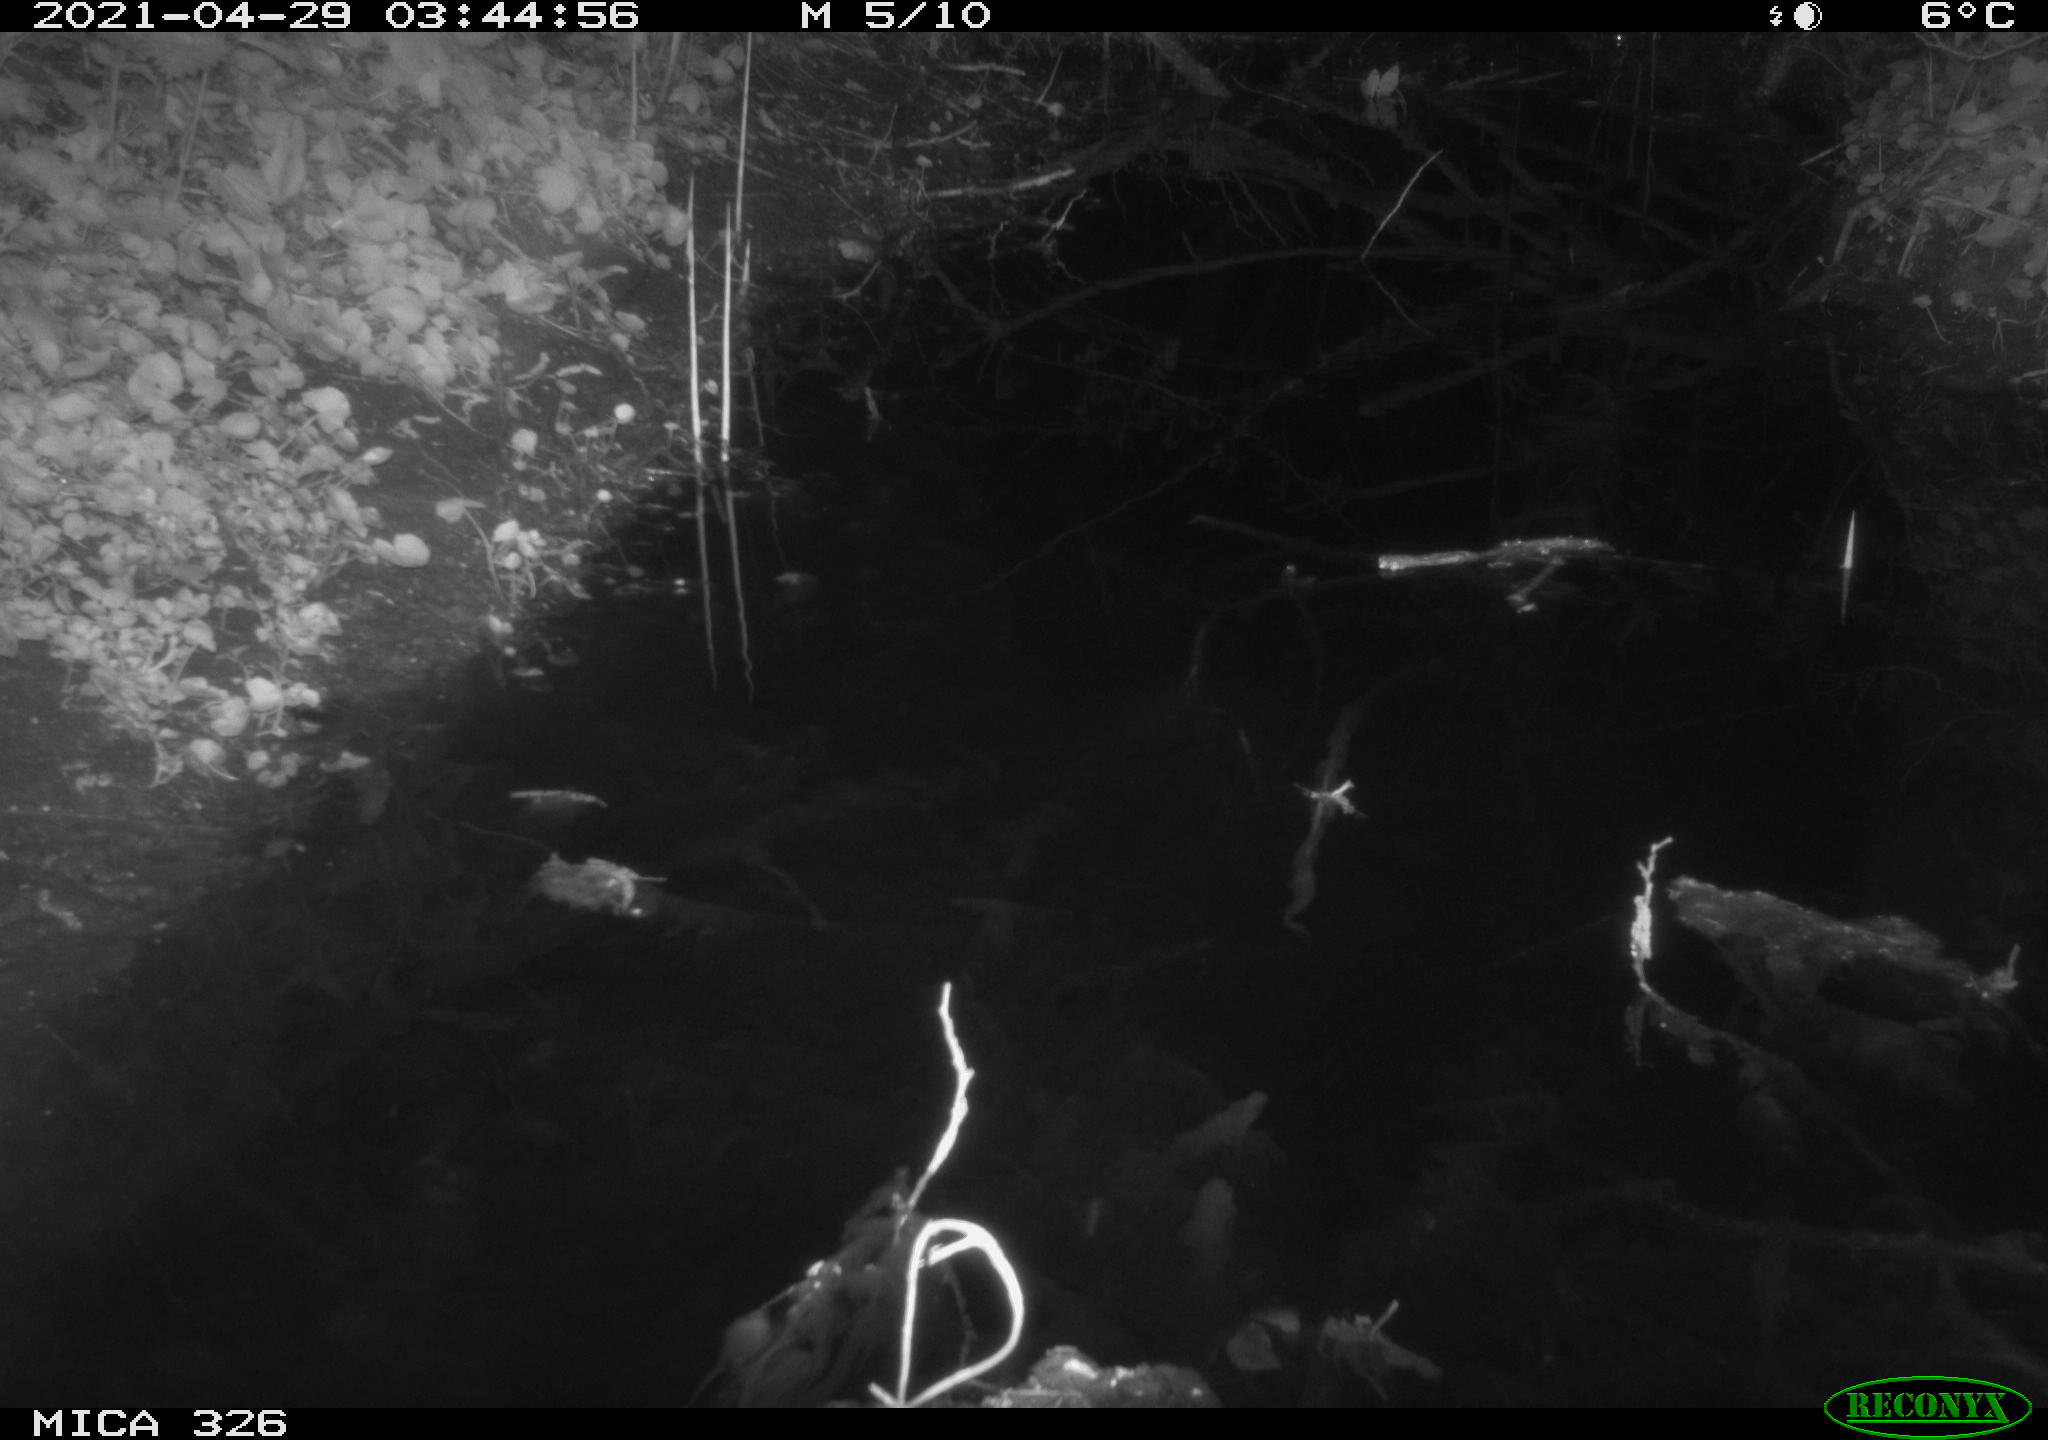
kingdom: Animalia
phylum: Chordata
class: Mammalia
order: Rodentia
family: Muridae
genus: Rattus
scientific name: Rattus norvegicus
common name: Brown rat
